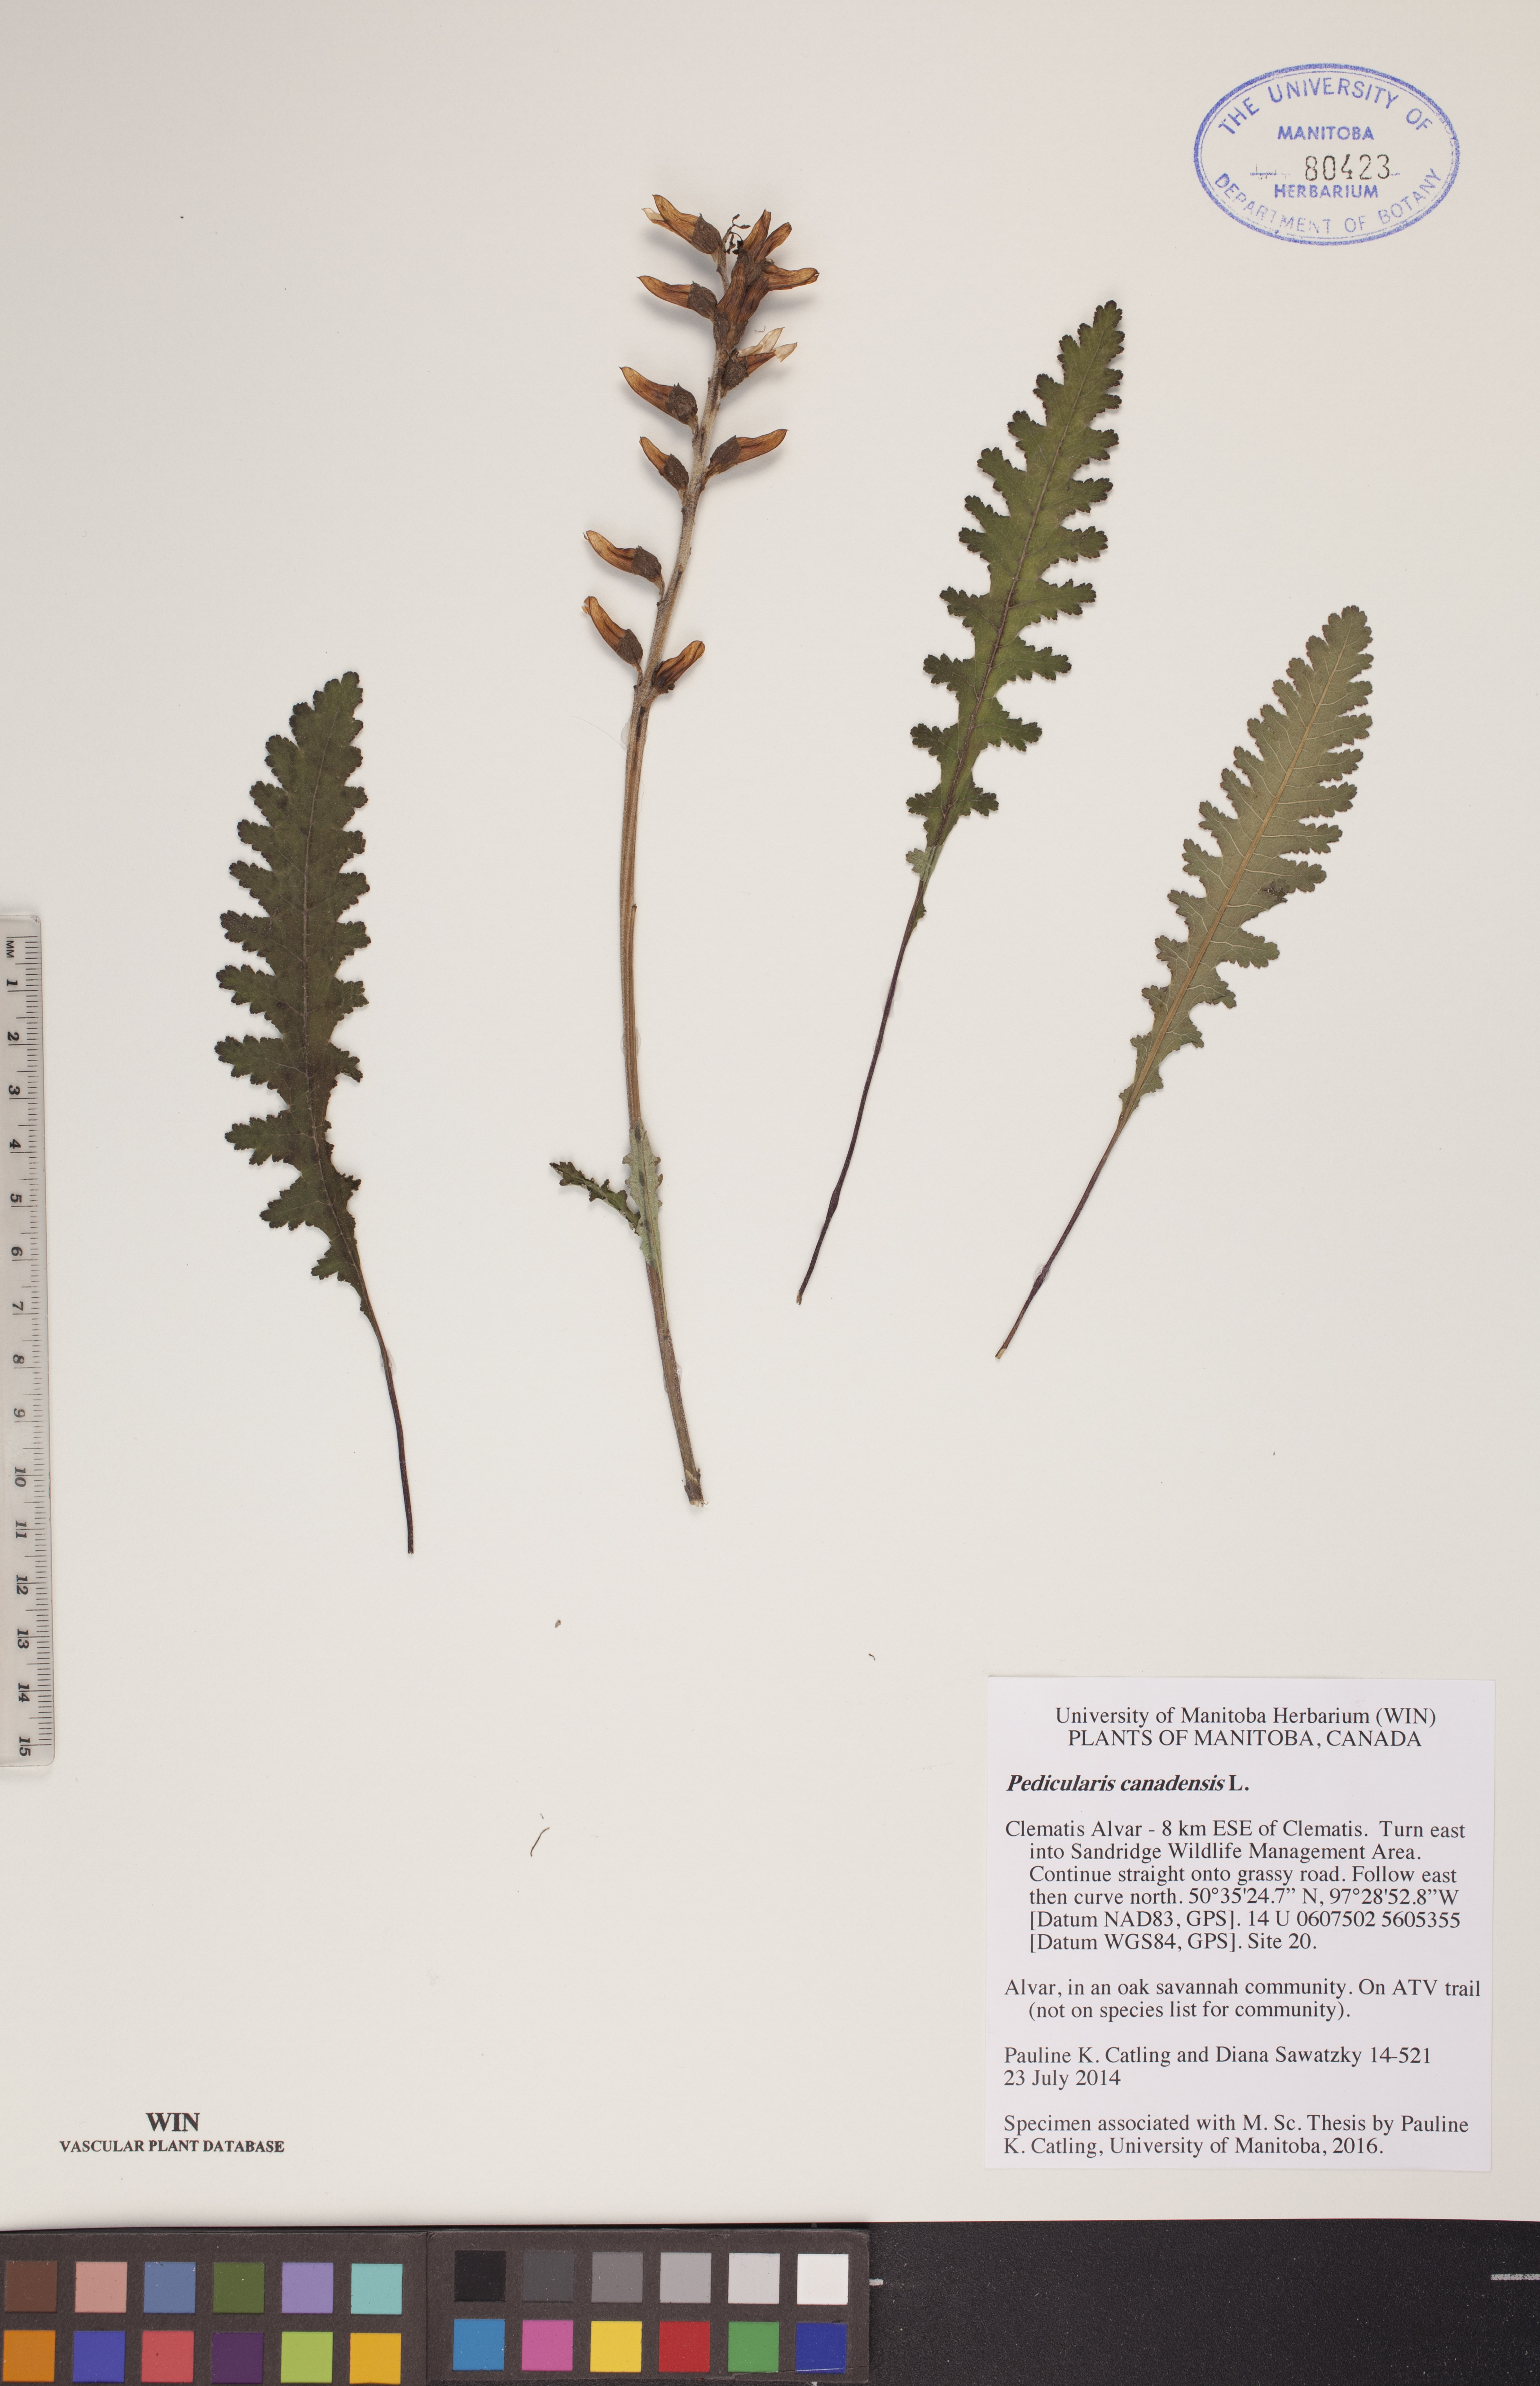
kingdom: Plantae
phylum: Tracheophyta
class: Magnoliopsida
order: Lamiales
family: Orobanchaceae
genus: Pedicularis
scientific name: Pedicularis canadensis
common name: Early lousewort
